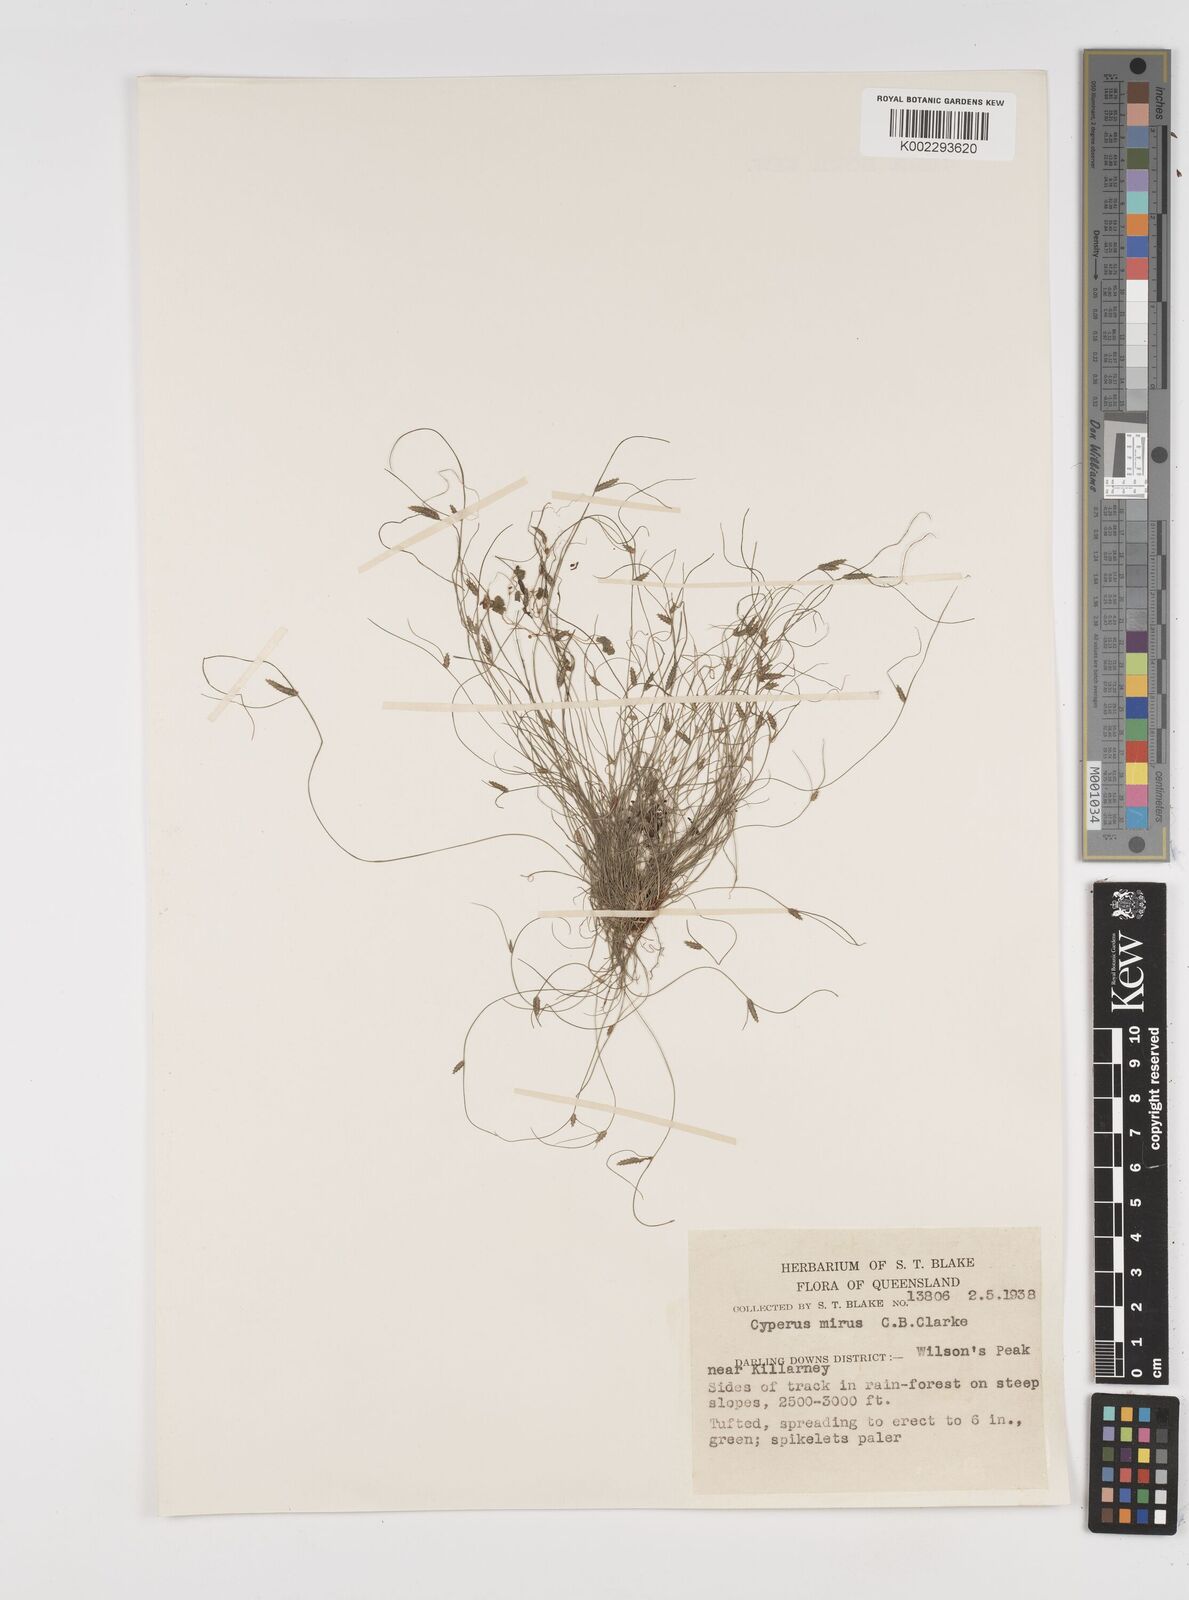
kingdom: Plantae
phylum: Tracheophyta
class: Liliopsida
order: Poales
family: Cyperaceae
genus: Cyperus
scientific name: Cyperus mirus
